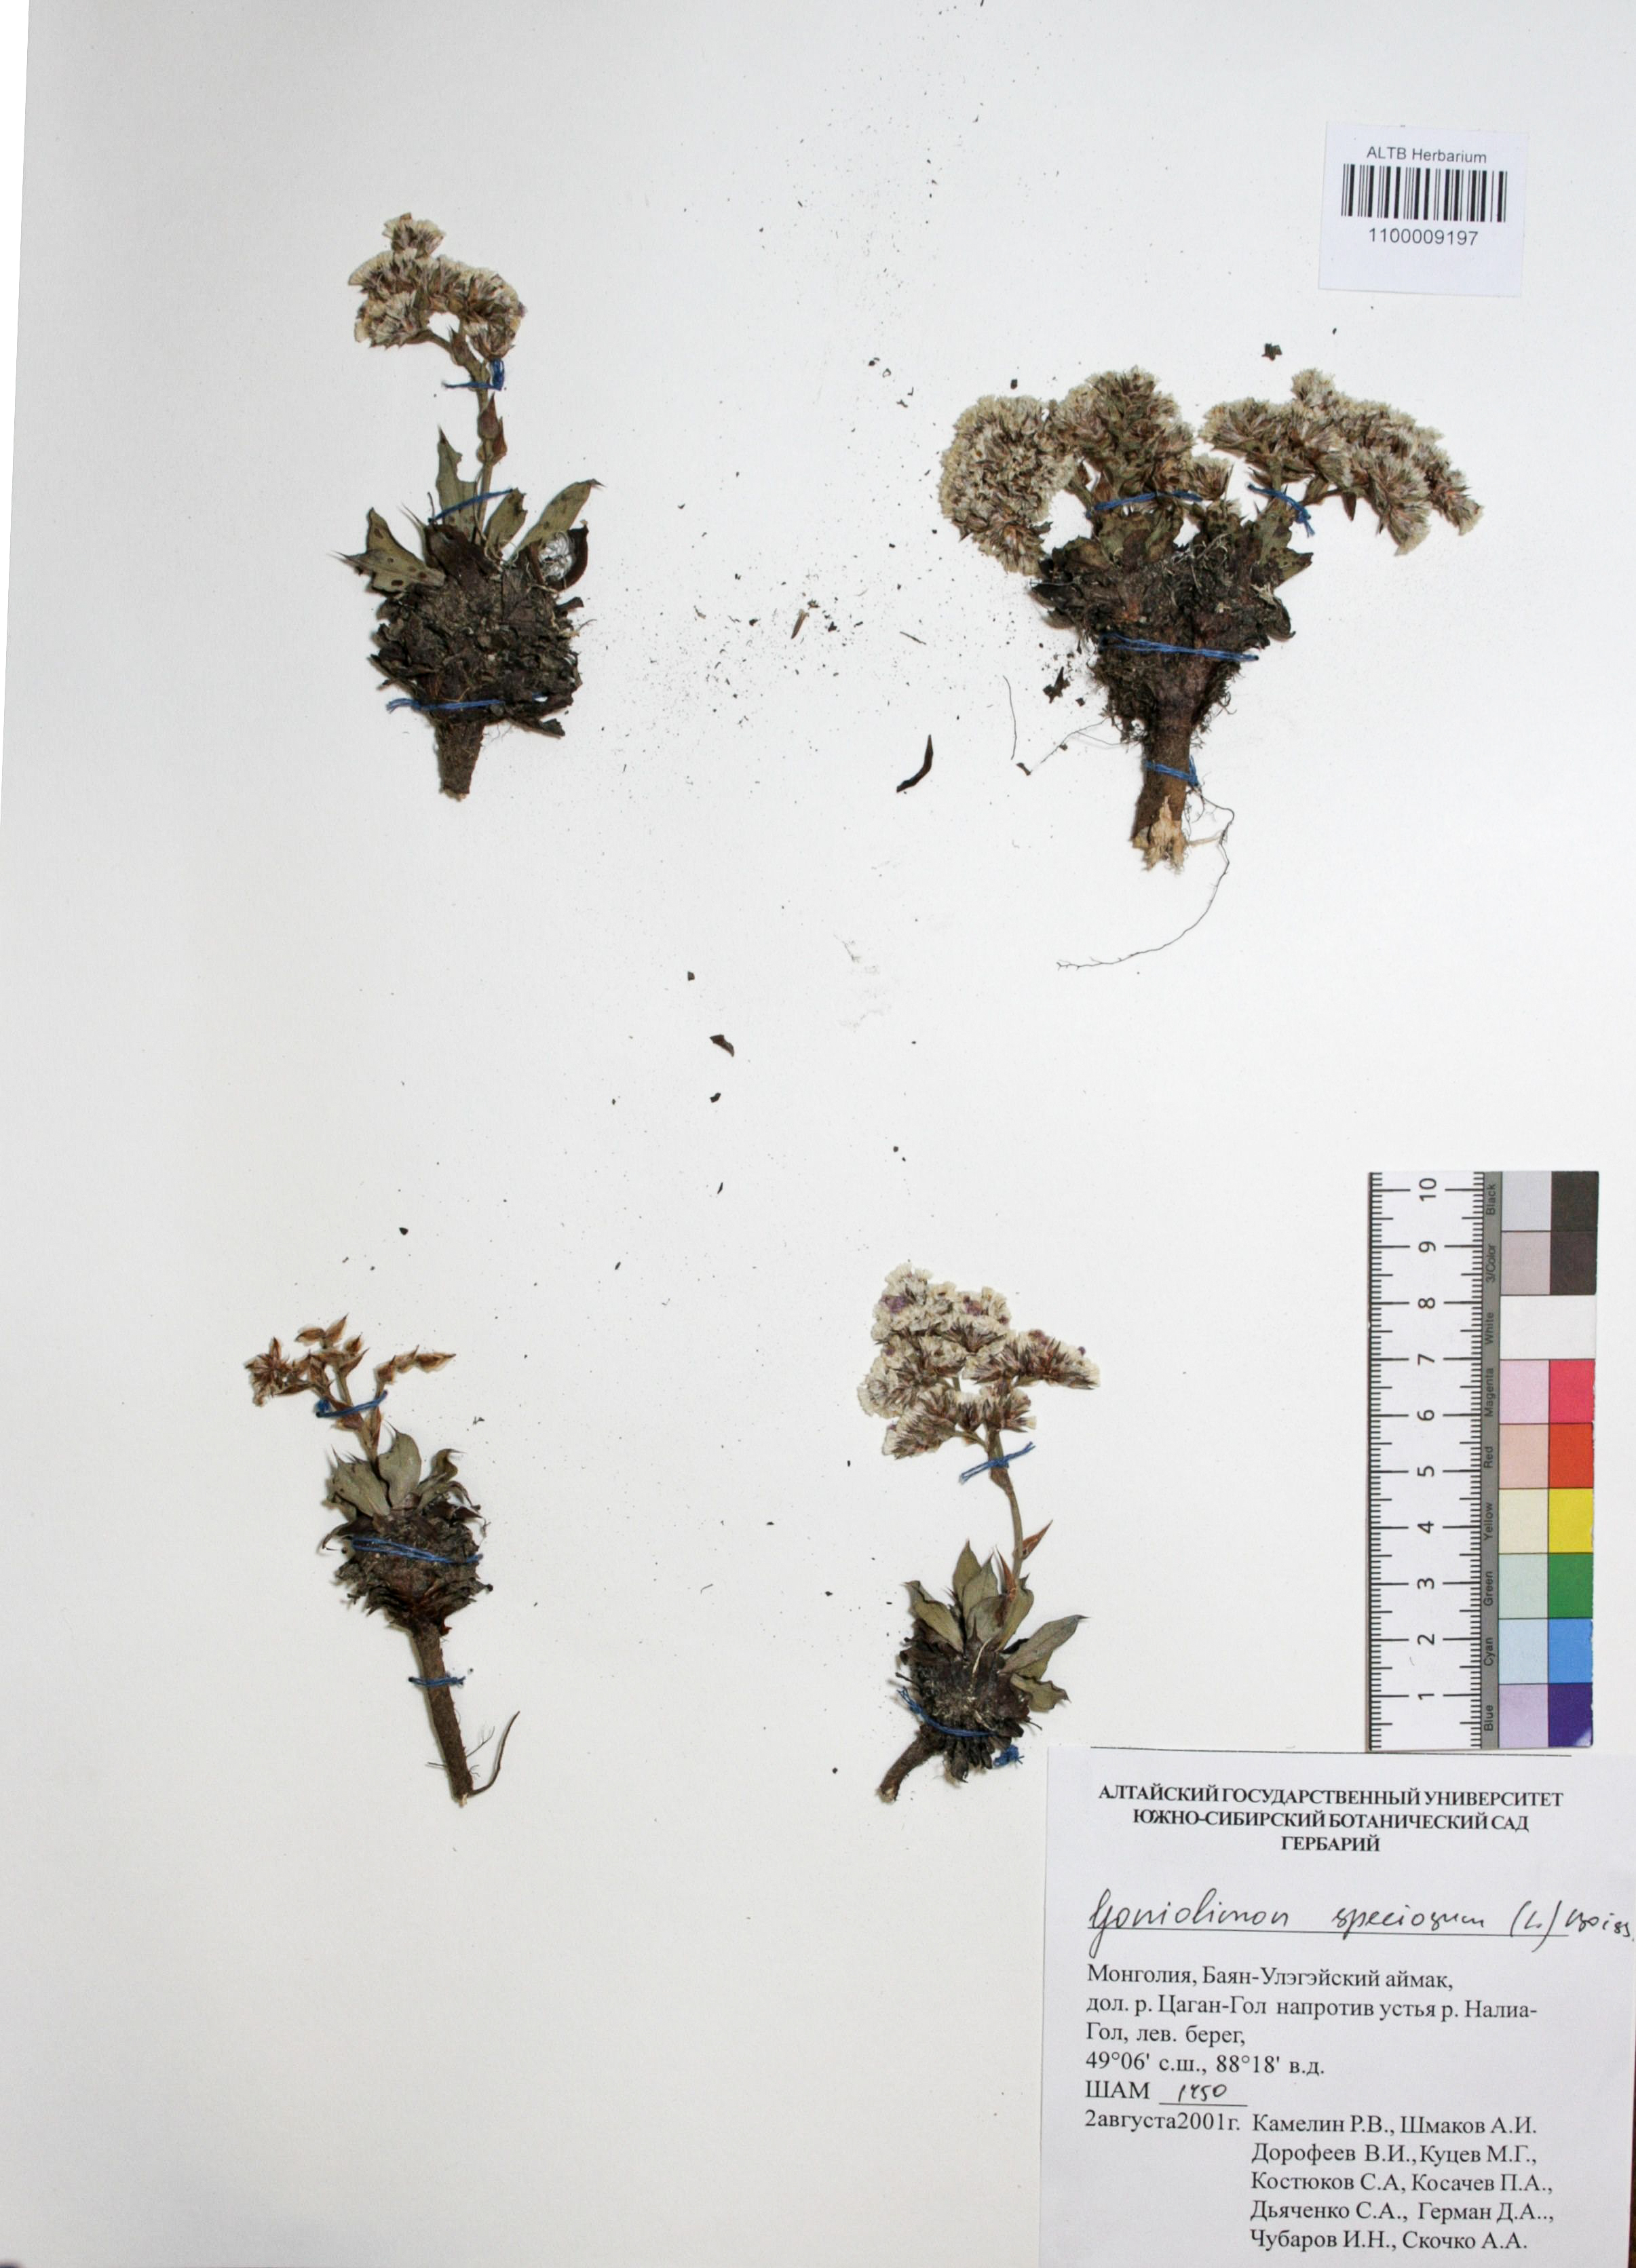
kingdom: Plantae
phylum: Tracheophyta
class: Magnoliopsida
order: Caryophyllales
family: Plumbaginaceae
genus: Goniolimon
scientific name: Goniolimon speciosum
